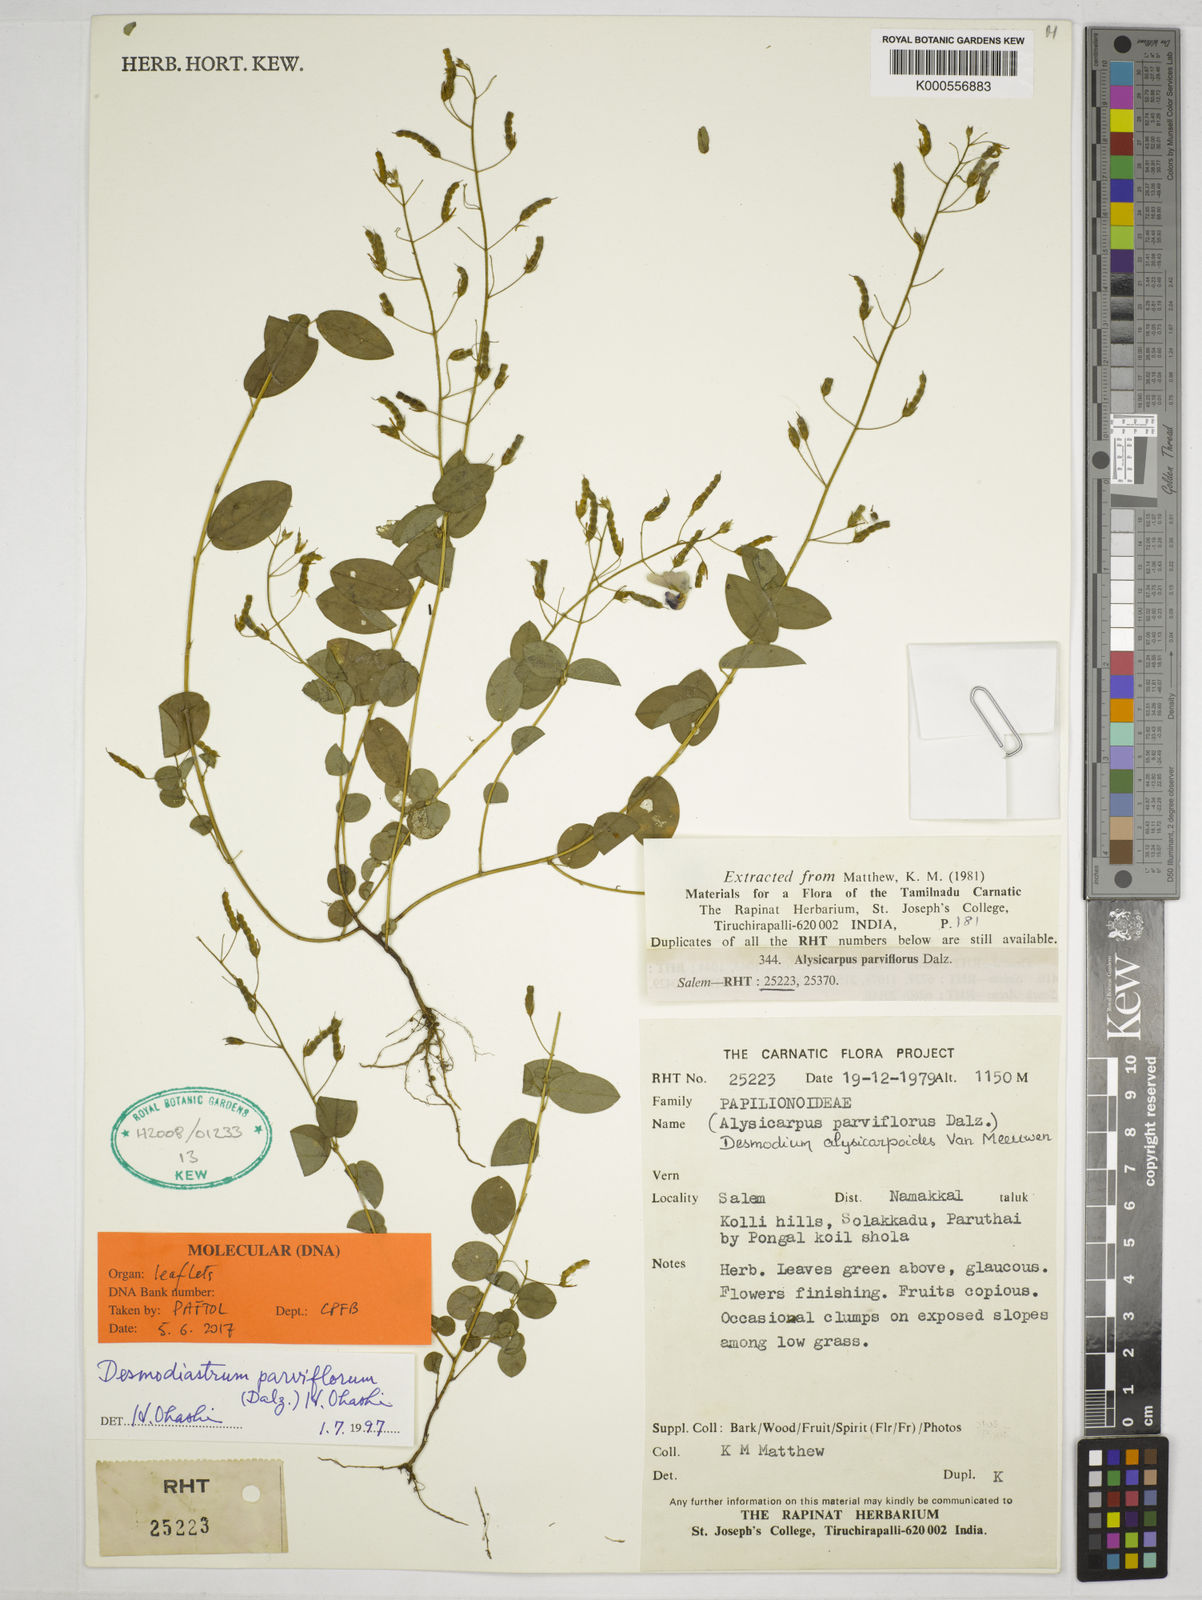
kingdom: Plantae
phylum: Tracheophyta
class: Magnoliopsida
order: Fabales
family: Fabaceae
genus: Alysicarpus
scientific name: Alysicarpus parviflorus
